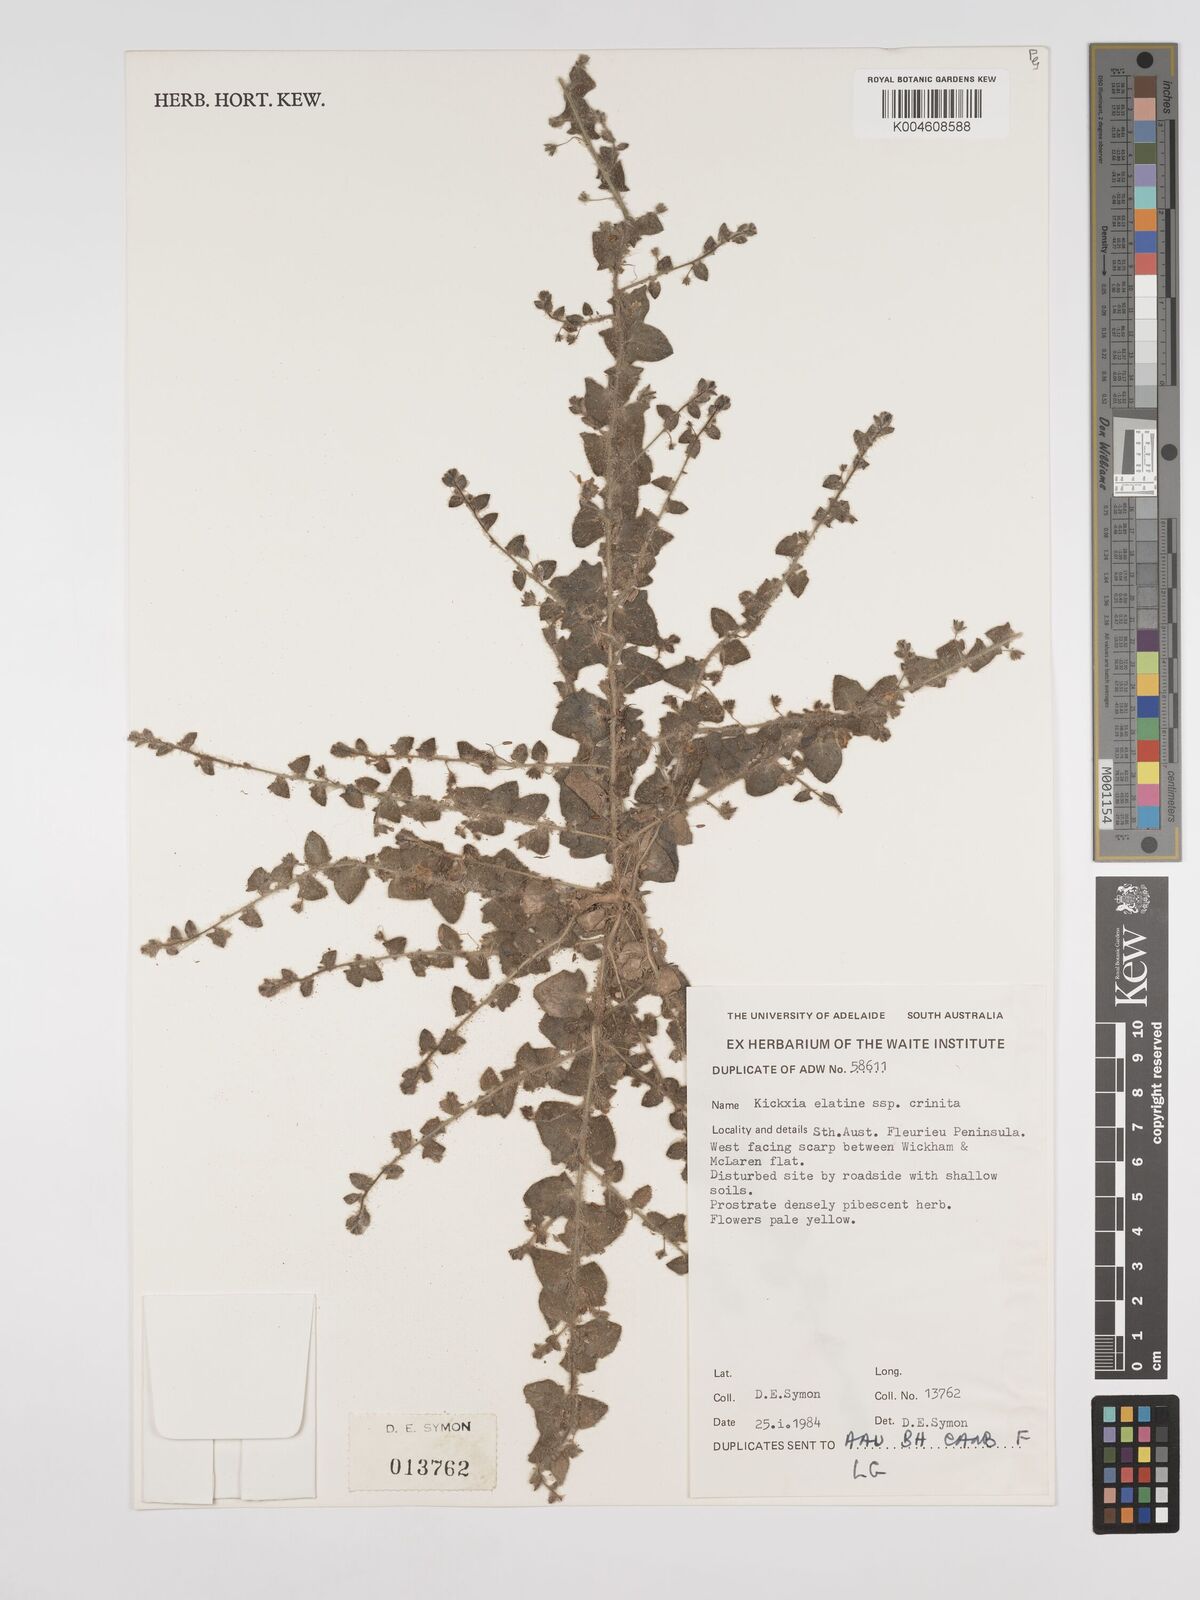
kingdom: Plantae
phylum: Tracheophyta
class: Magnoliopsida
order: Lamiales
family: Plantaginaceae
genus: Kickxia
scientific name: Kickxia commutata
